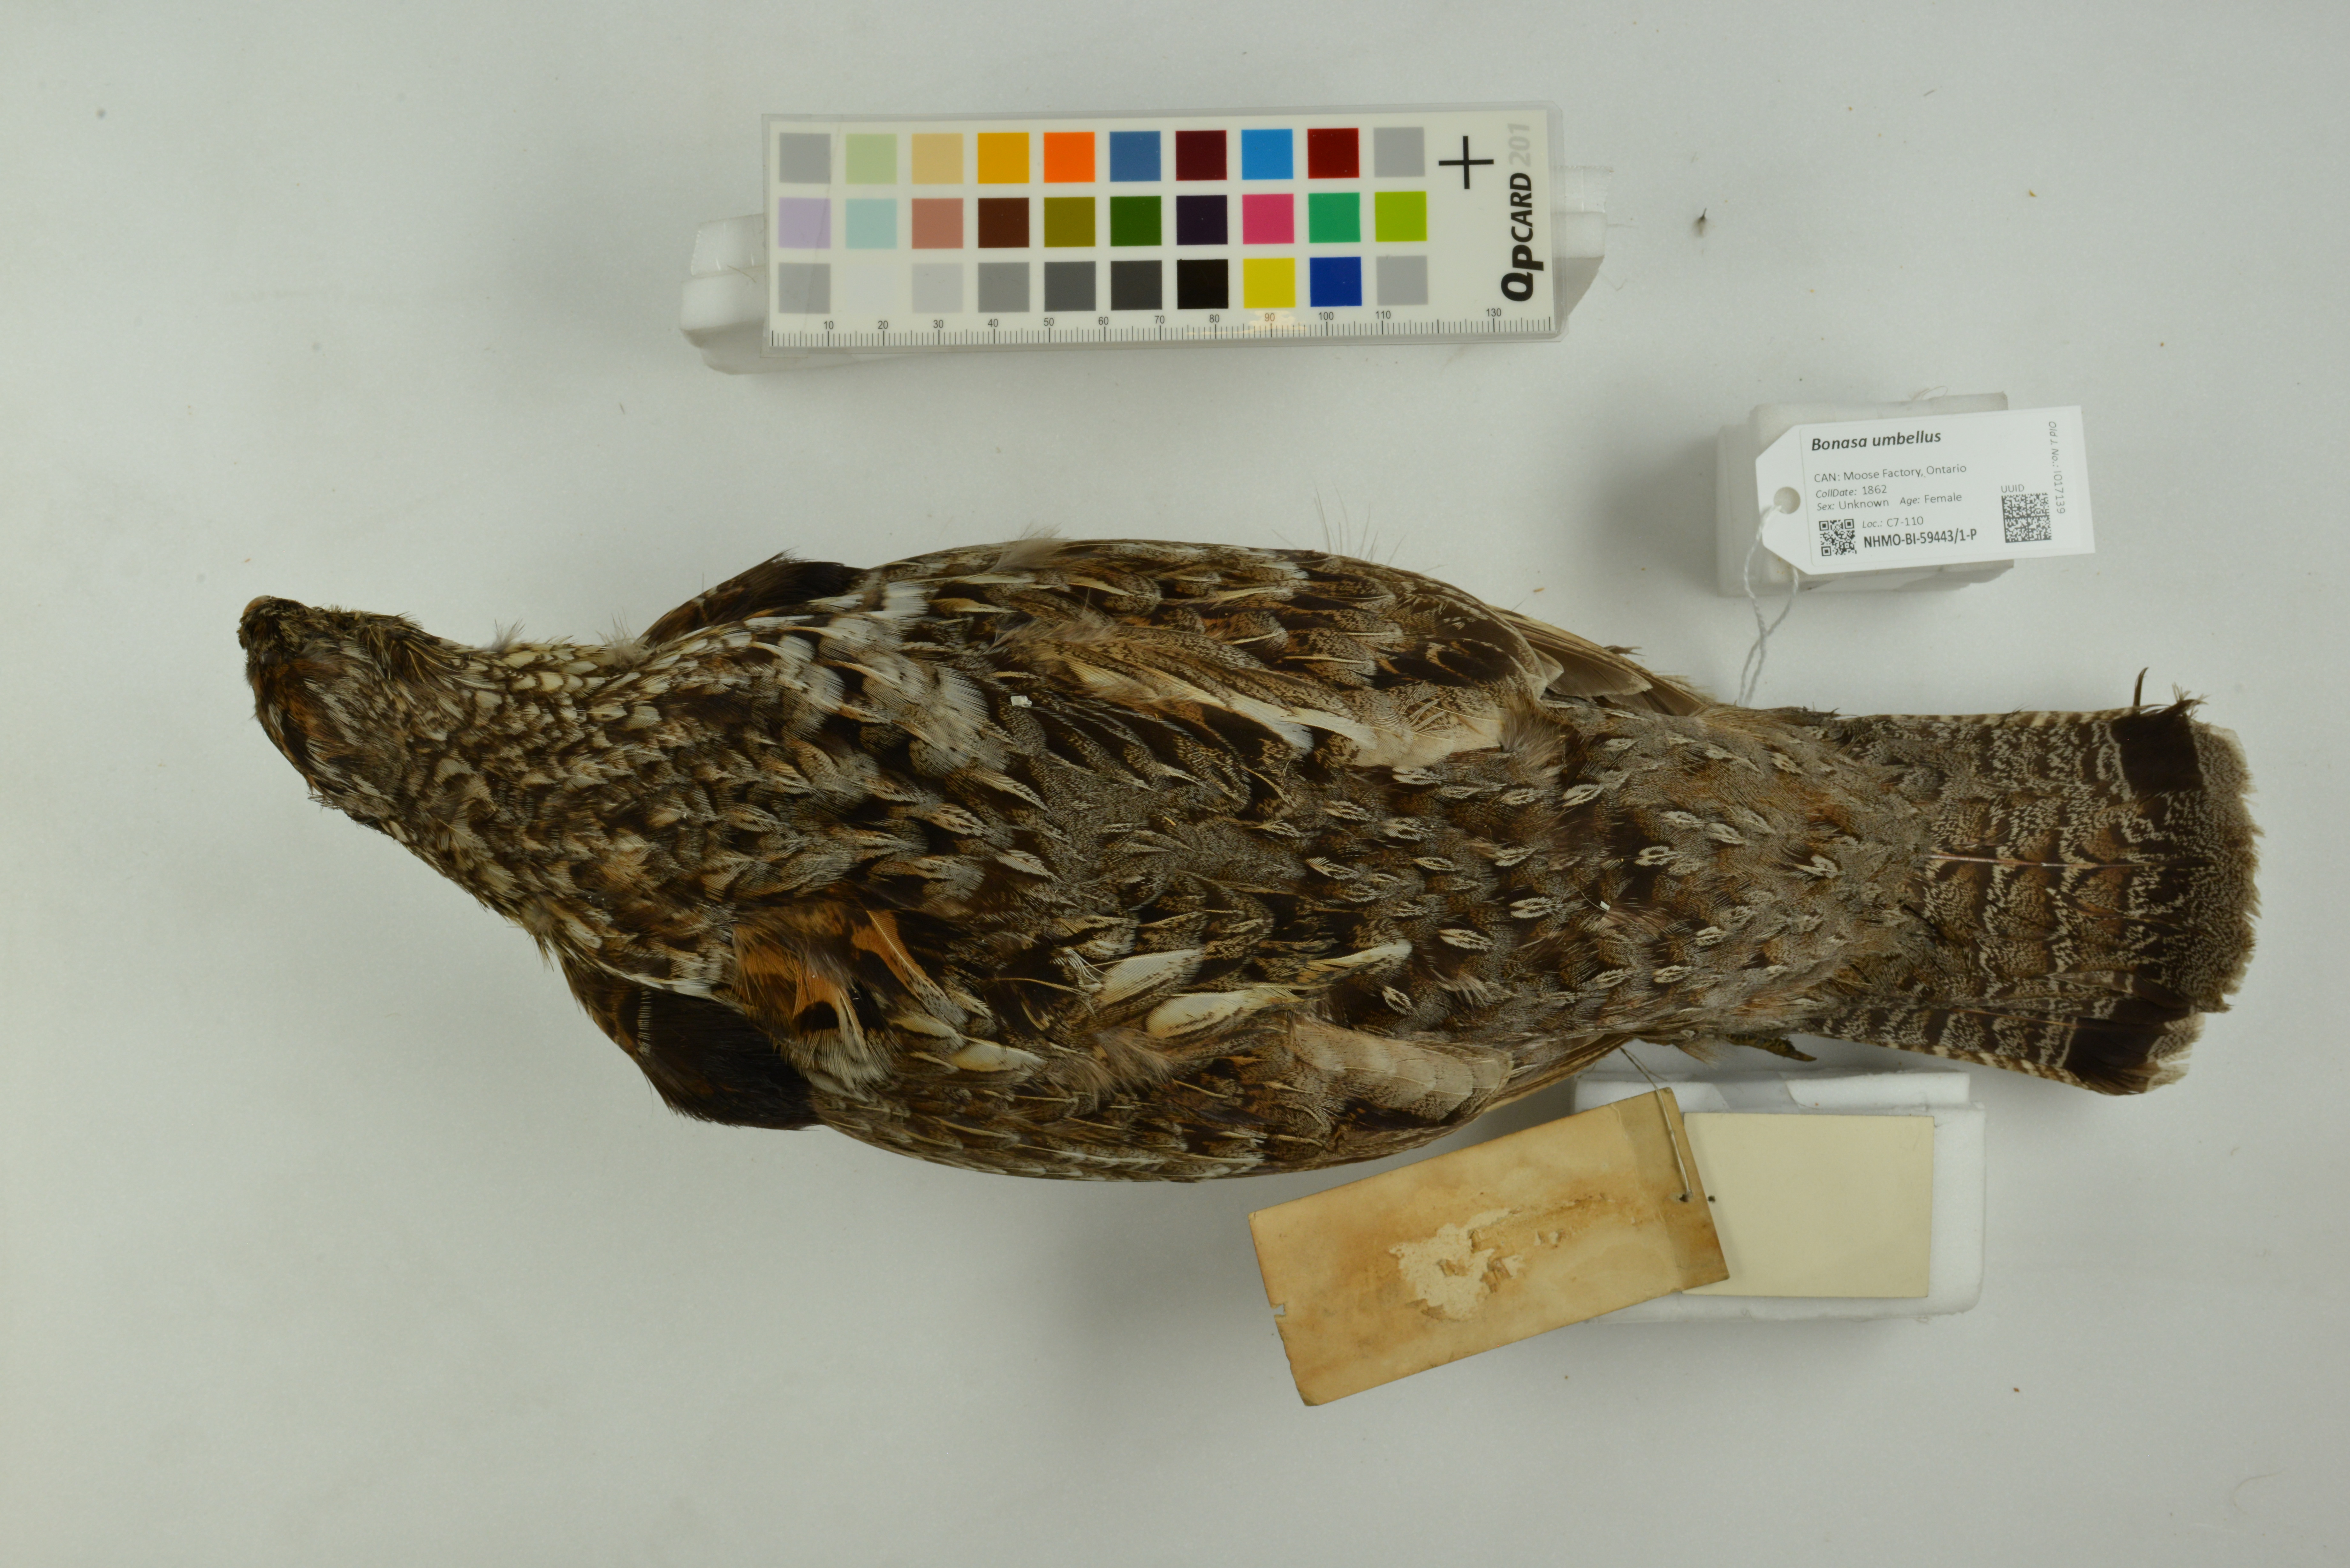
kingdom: Animalia
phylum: Chordata
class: Aves
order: Galliformes
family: Phasianidae
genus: Bonasa
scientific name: Bonasa umbellus
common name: Ruffed grouse
